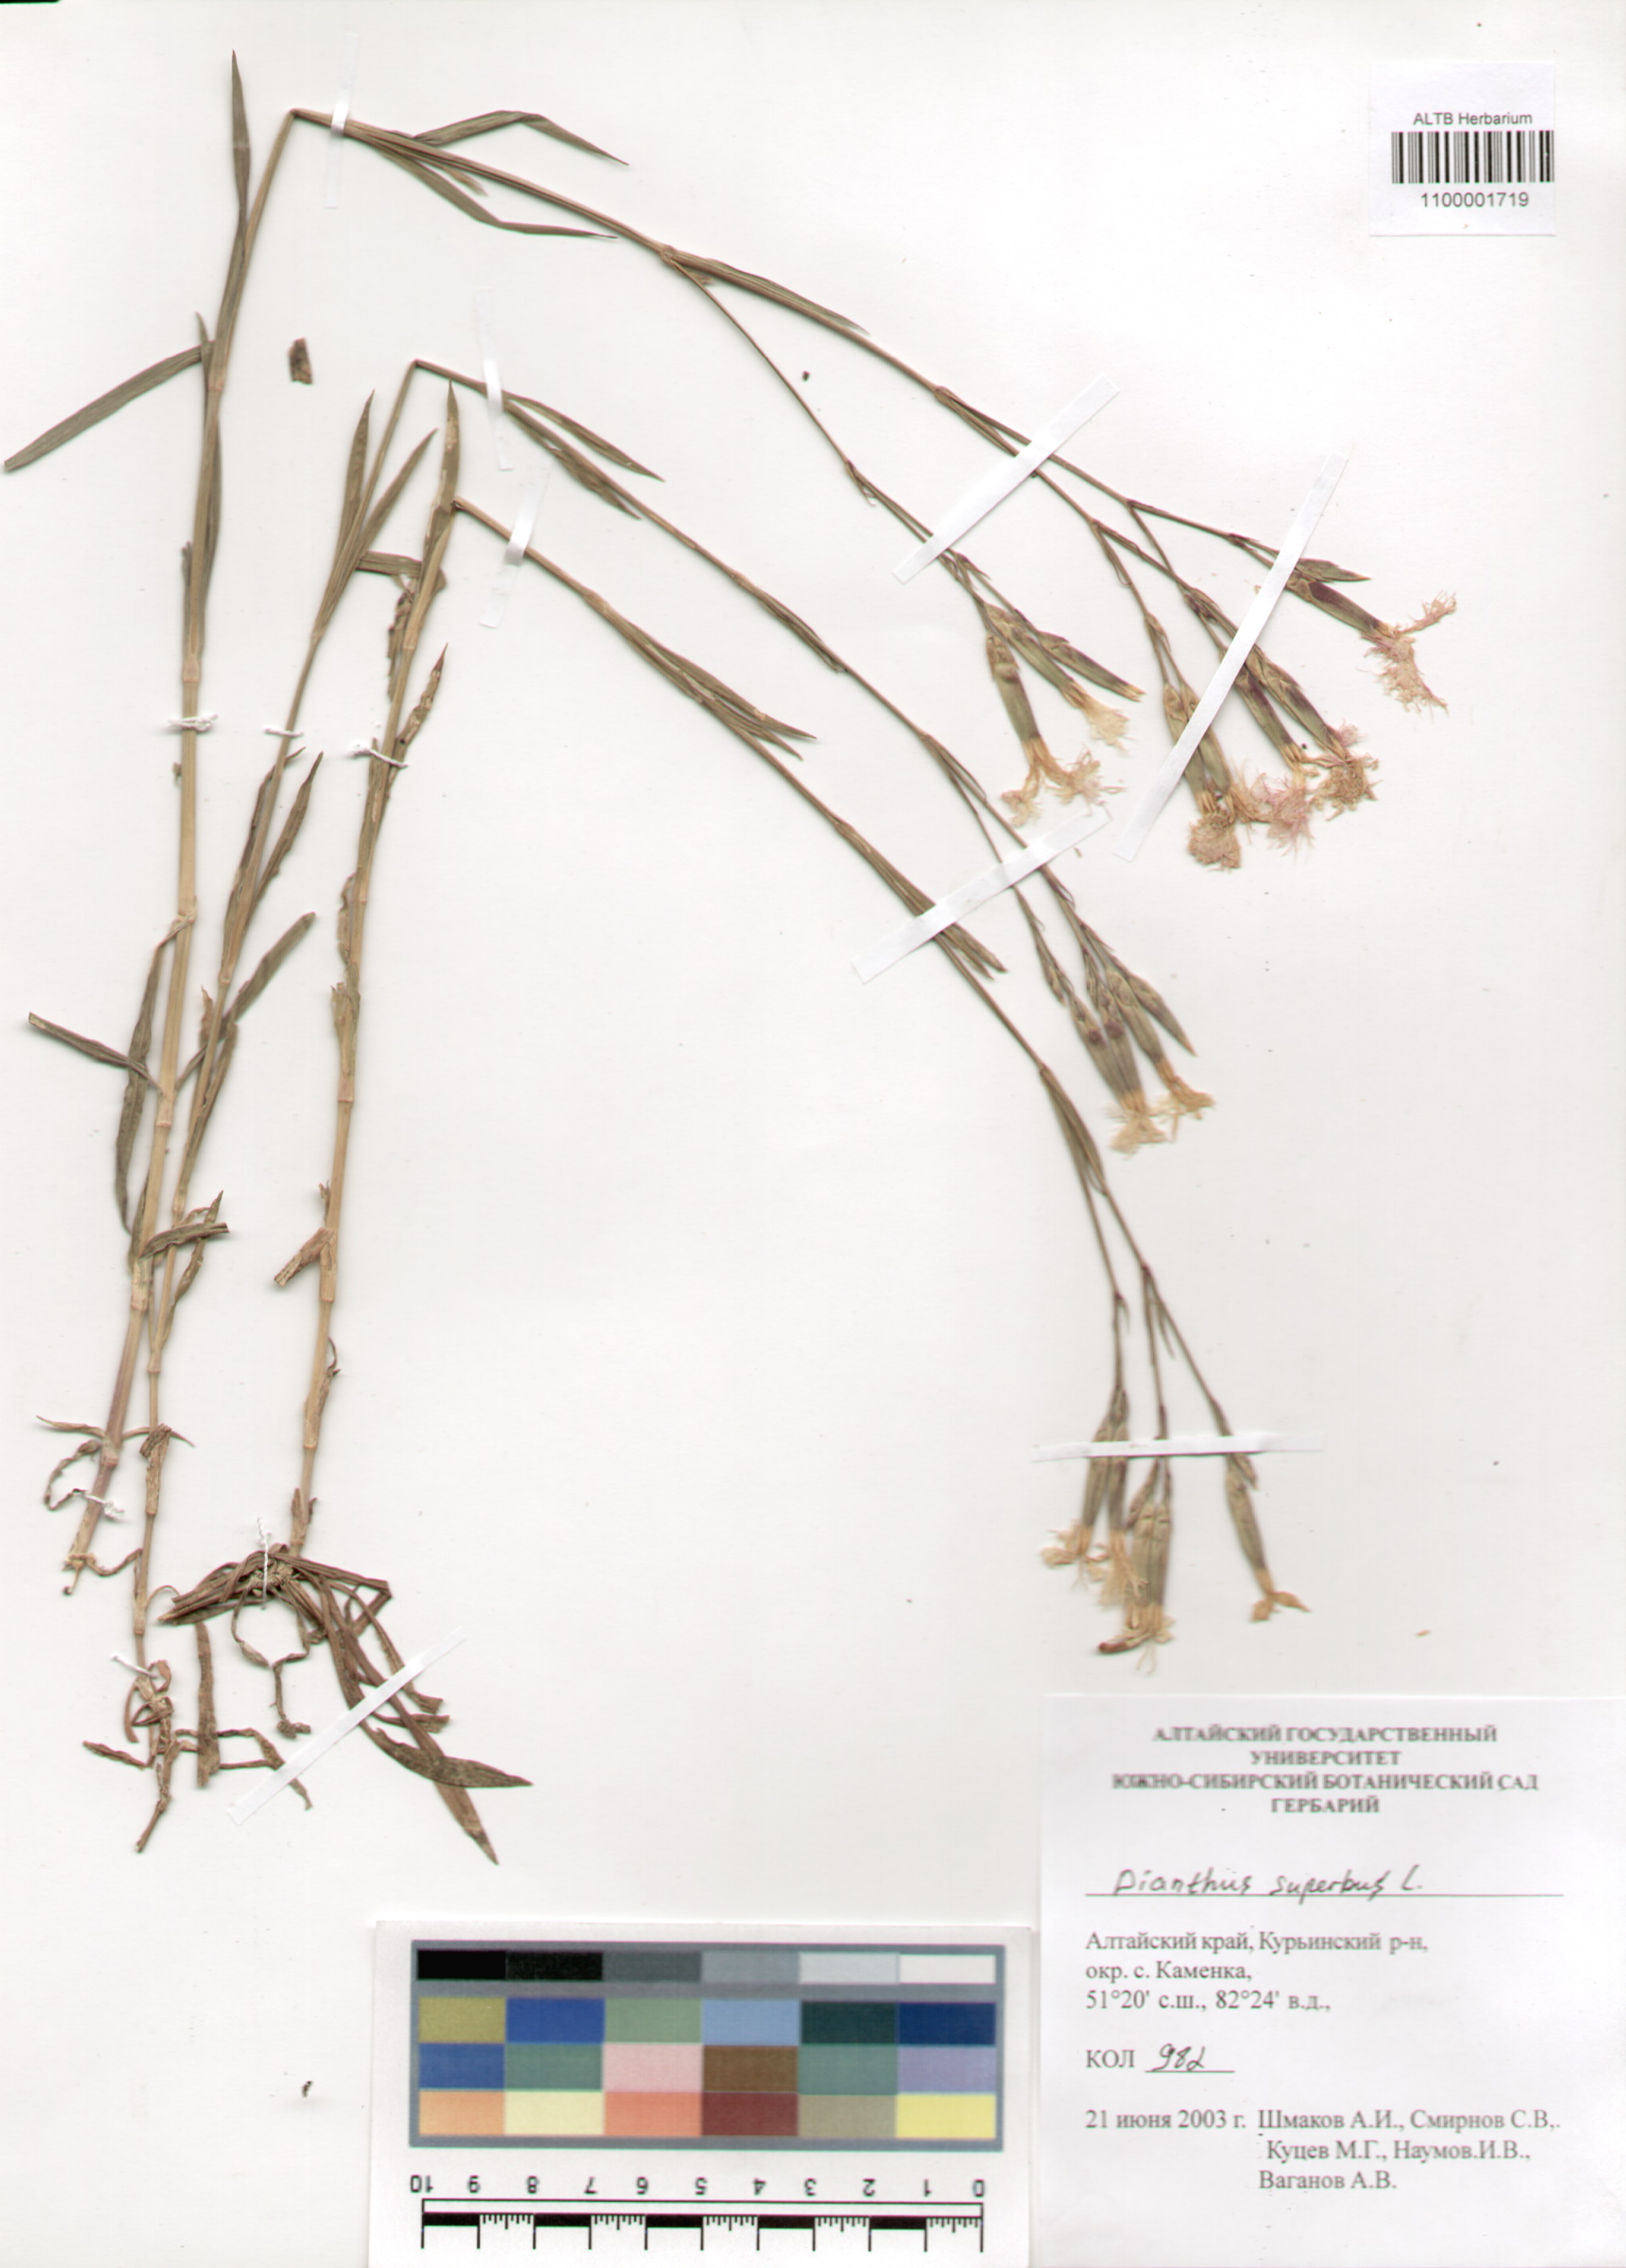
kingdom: Plantae
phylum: Tracheophyta
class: Magnoliopsida
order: Caryophyllales
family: Caryophyllaceae
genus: Dianthus
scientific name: Dianthus superbus
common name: Fringed pink
